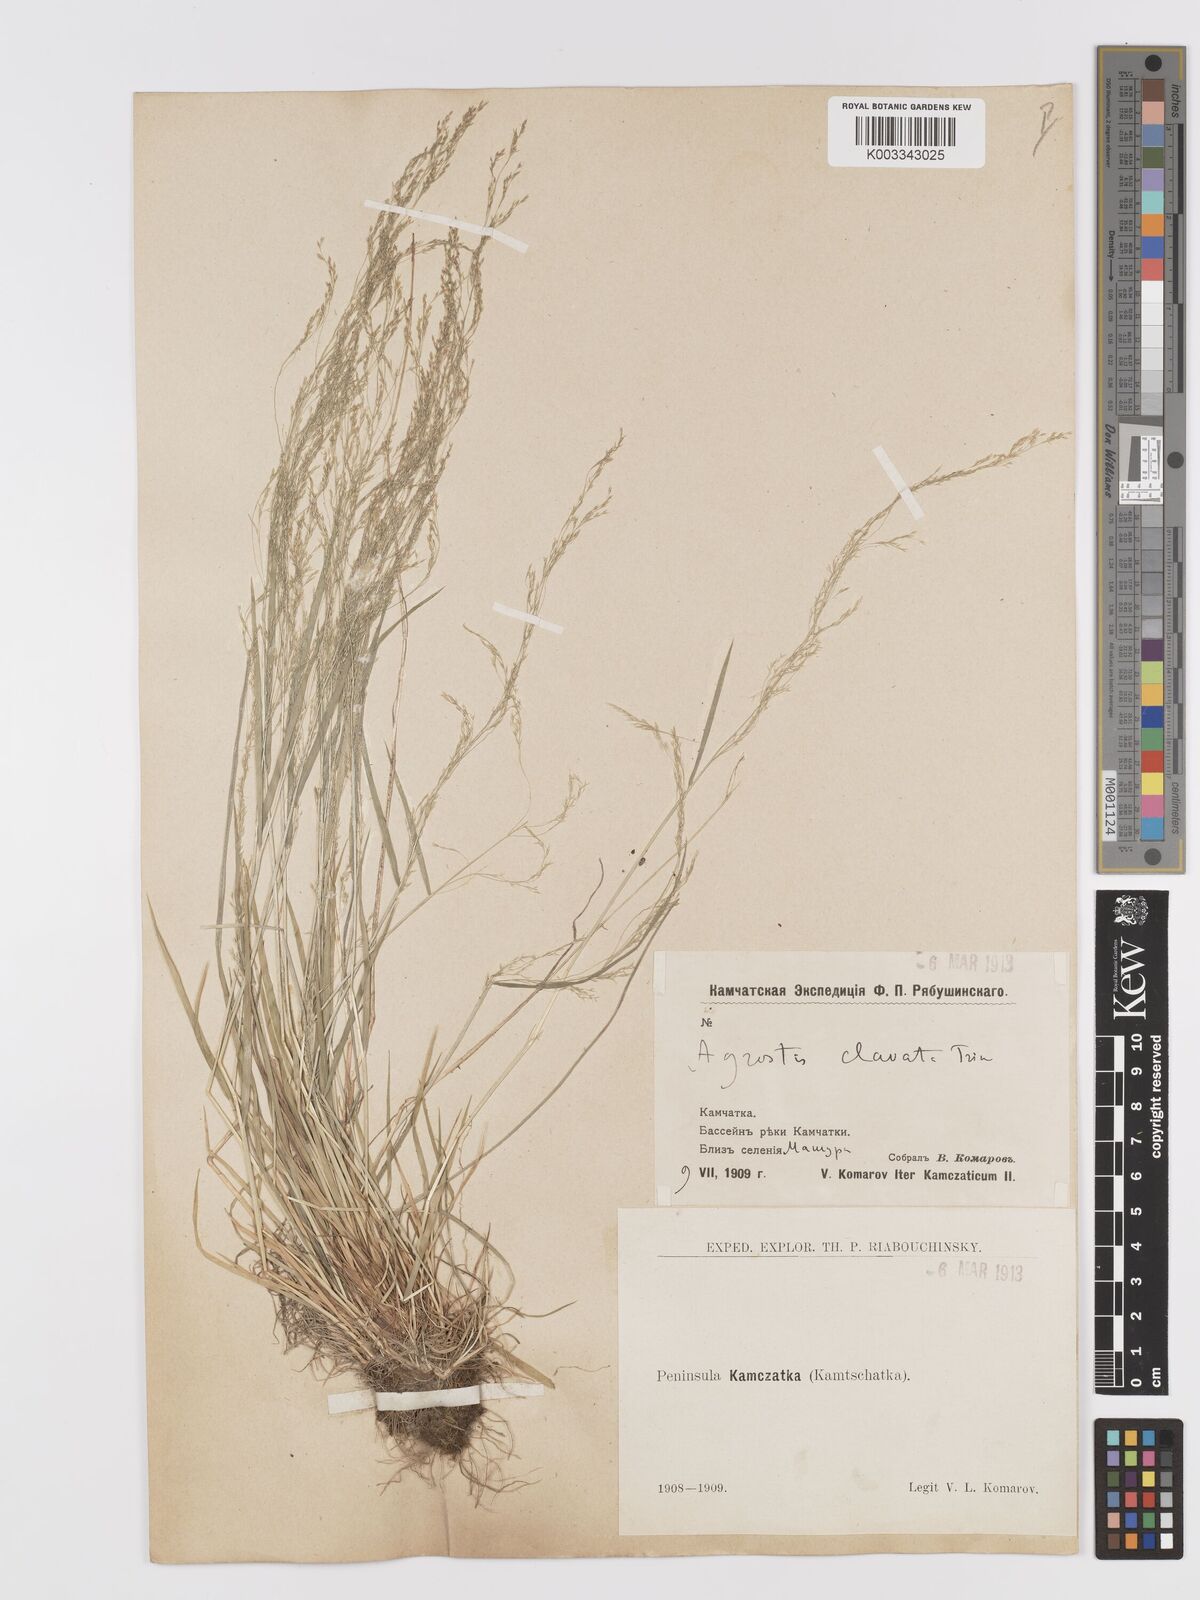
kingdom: Plantae
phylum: Tracheophyta
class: Liliopsida
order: Poales
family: Poaceae
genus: Agrostis
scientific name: Agrostis clavata
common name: Clavate bent
